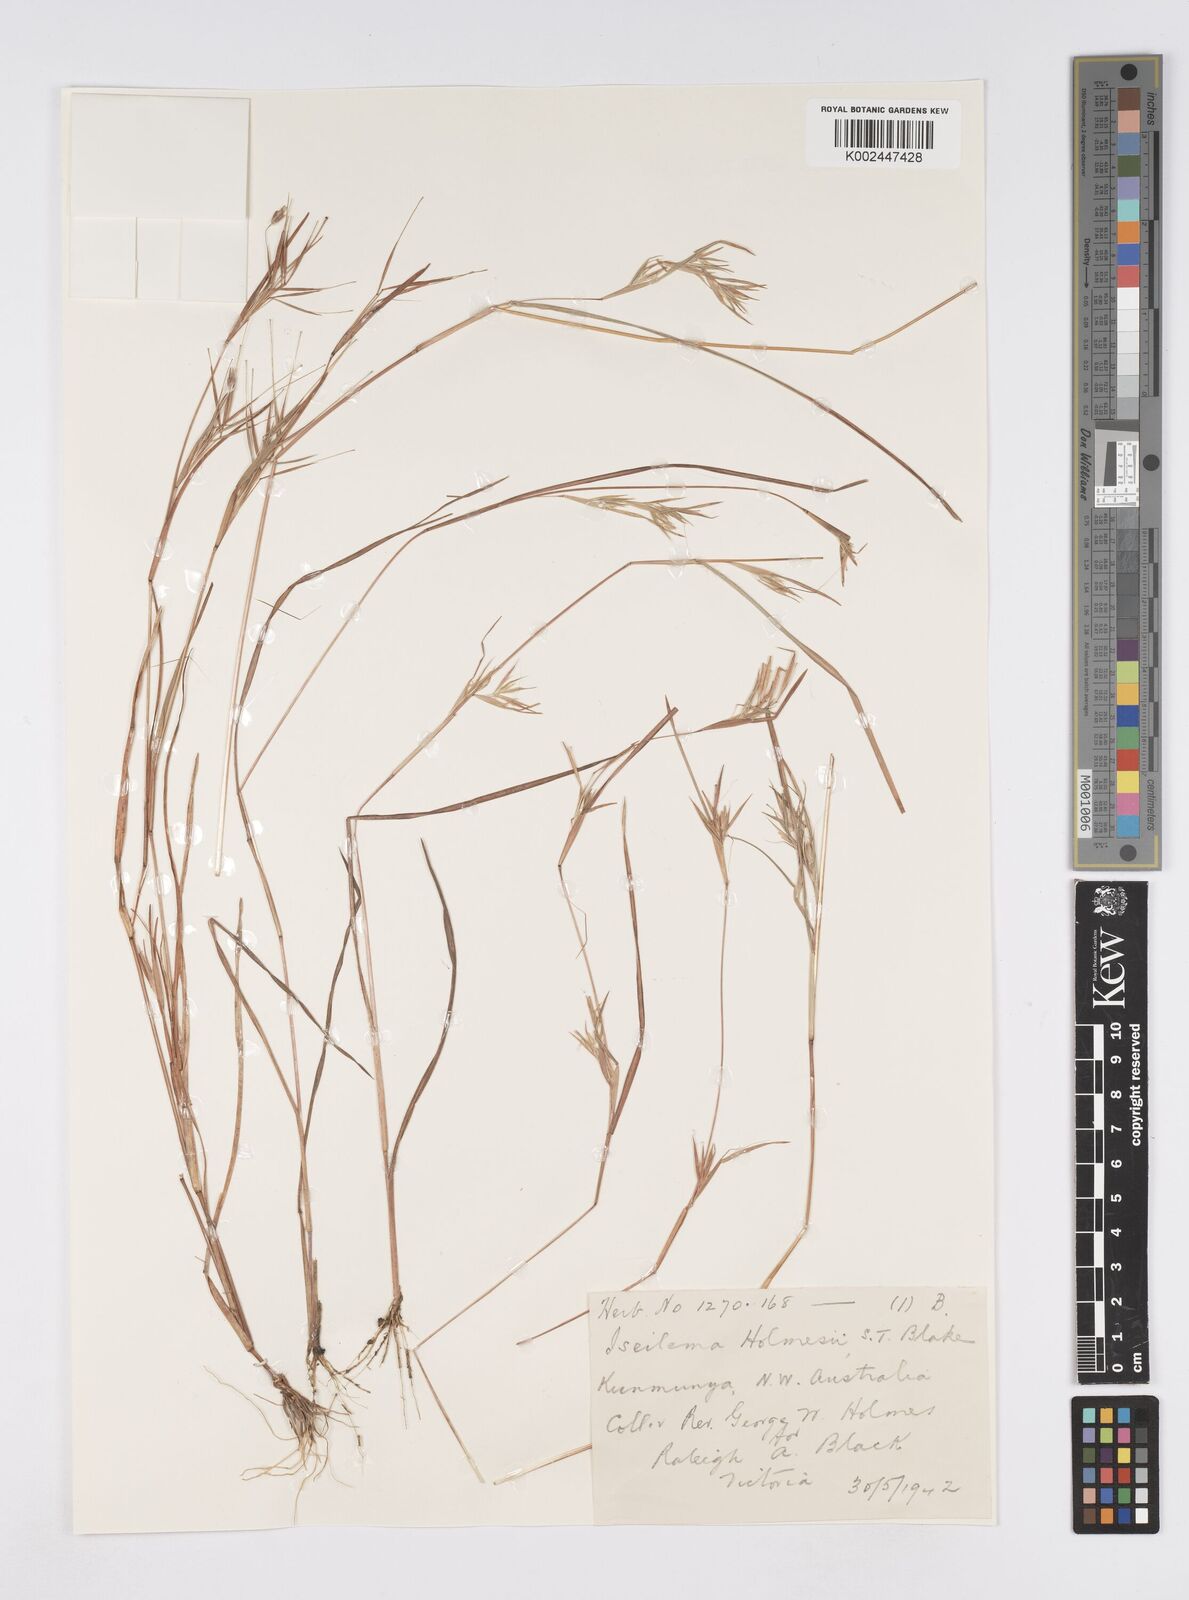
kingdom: Plantae
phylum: Tracheophyta
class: Liliopsida
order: Poales
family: Poaceae
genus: Iseilema
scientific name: Iseilema holmesii
